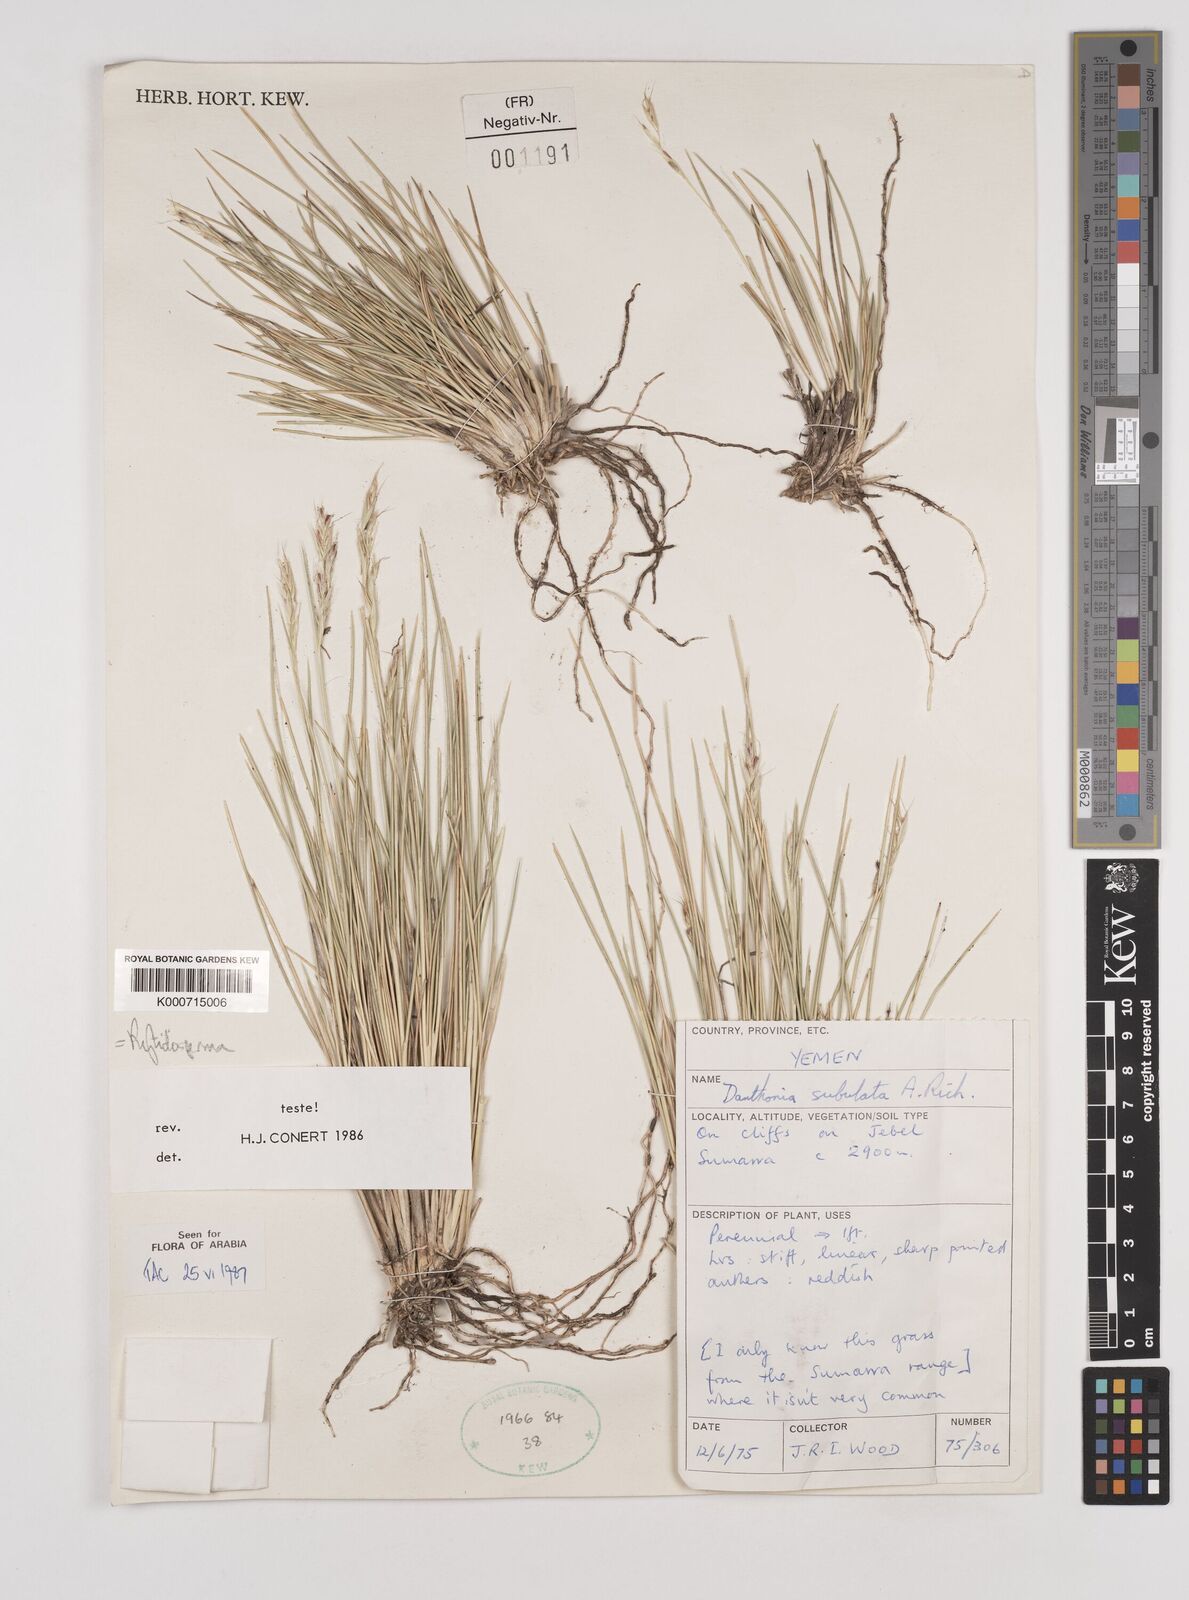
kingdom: Plantae
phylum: Tracheophyta
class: Liliopsida
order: Poales
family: Poaceae
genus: Tenaxia
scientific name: Tenaxia subulata
